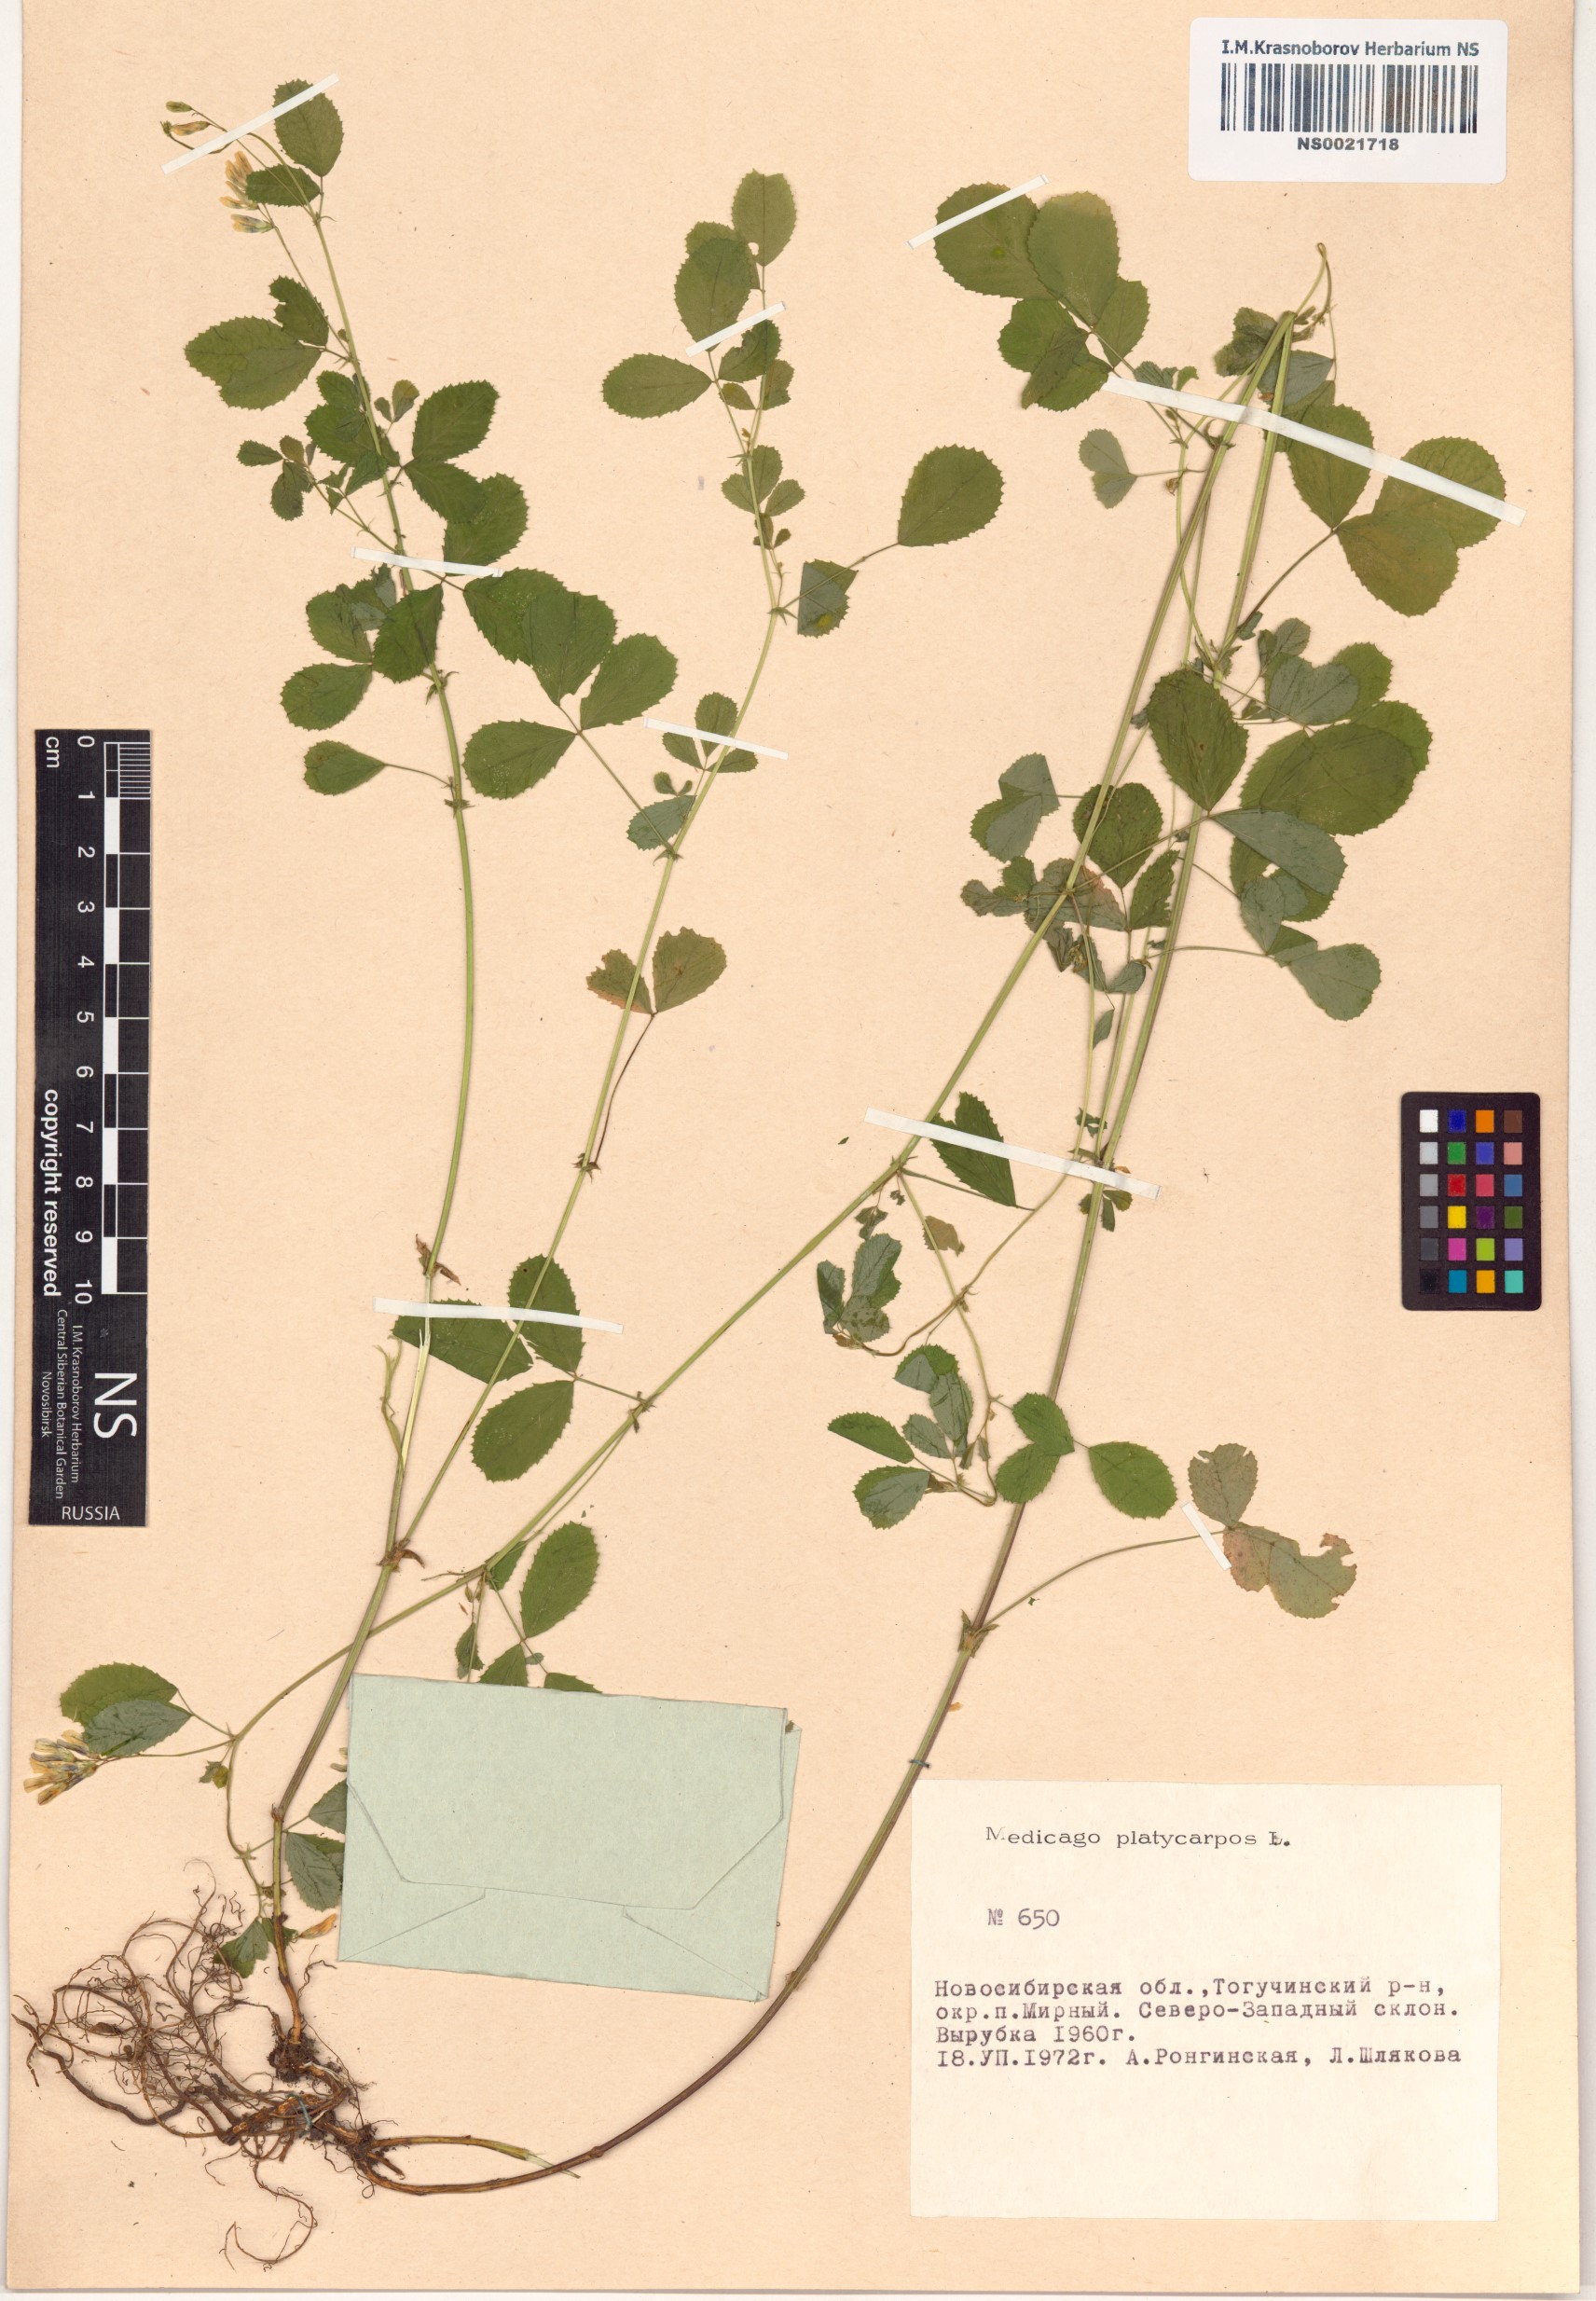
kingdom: Plantae
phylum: Tracheophyta
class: Magnoliopsida
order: Fabales
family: Fabaceae
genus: Medicago
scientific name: Medicago platycarpos
